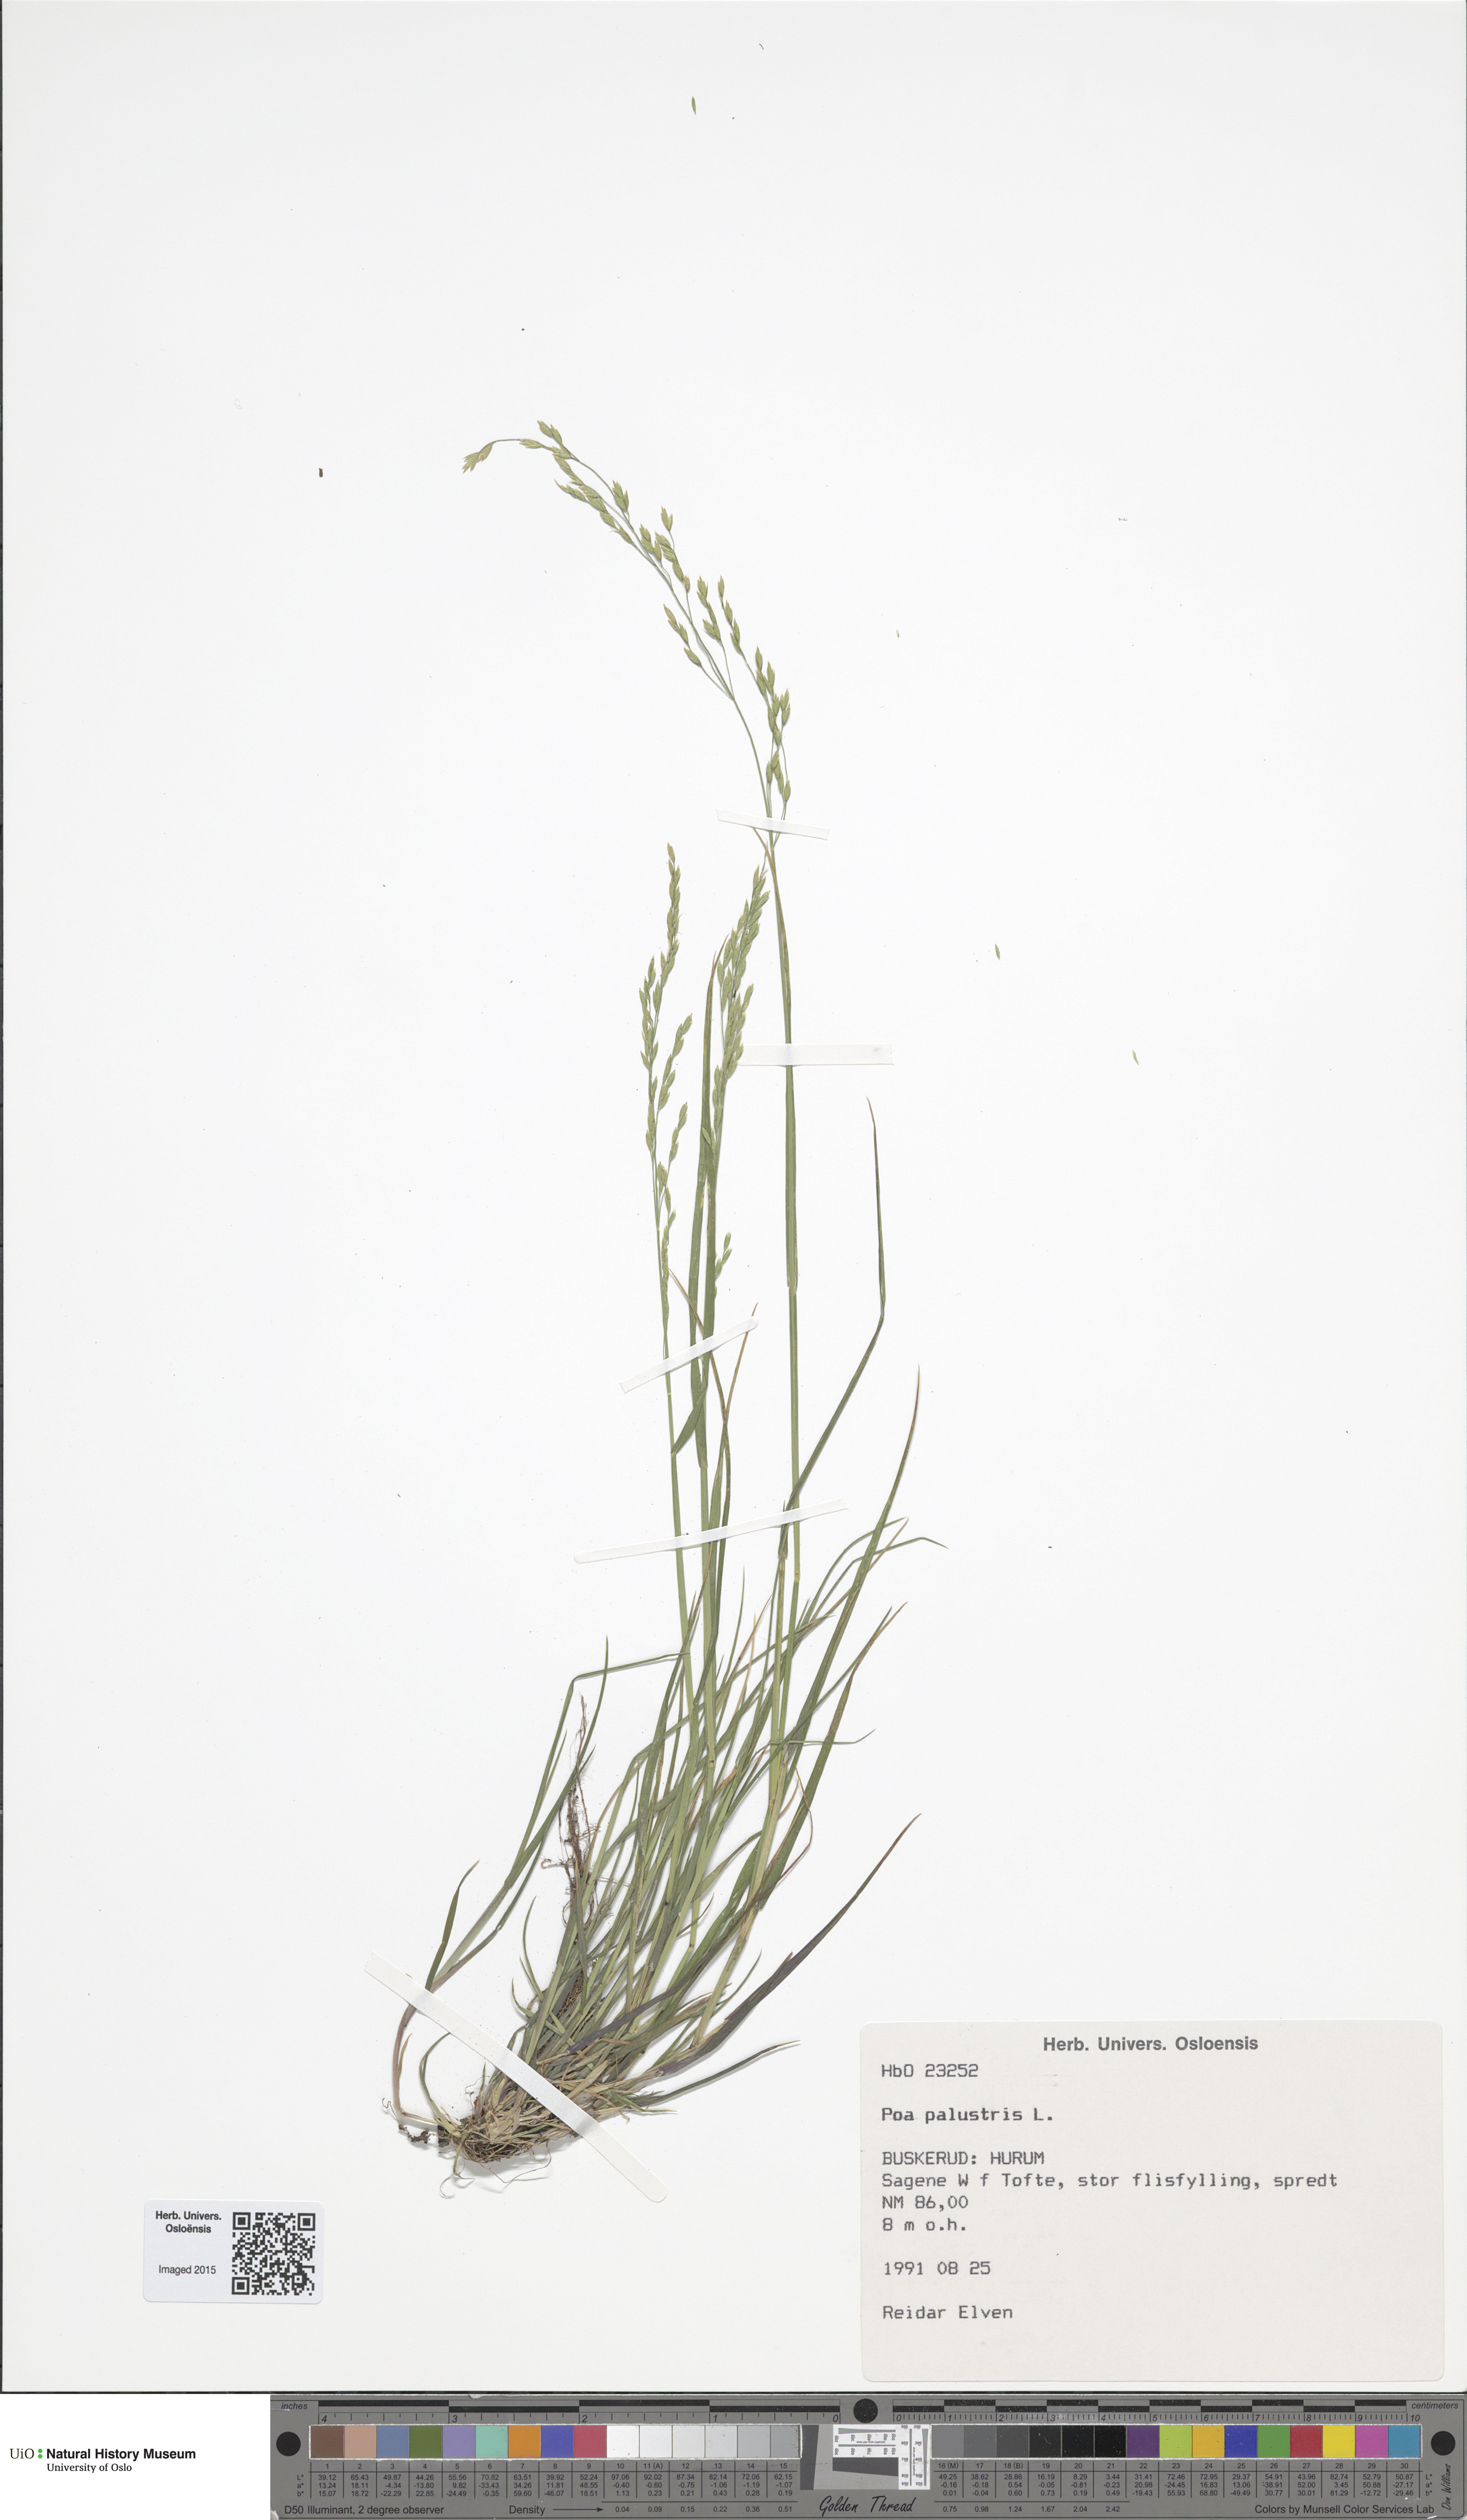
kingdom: Plantae
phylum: Tracheophyta
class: Liliopsida
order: Poales
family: Poaceae
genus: Poa
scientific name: Poa palustris
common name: Swamp meadow-grass
